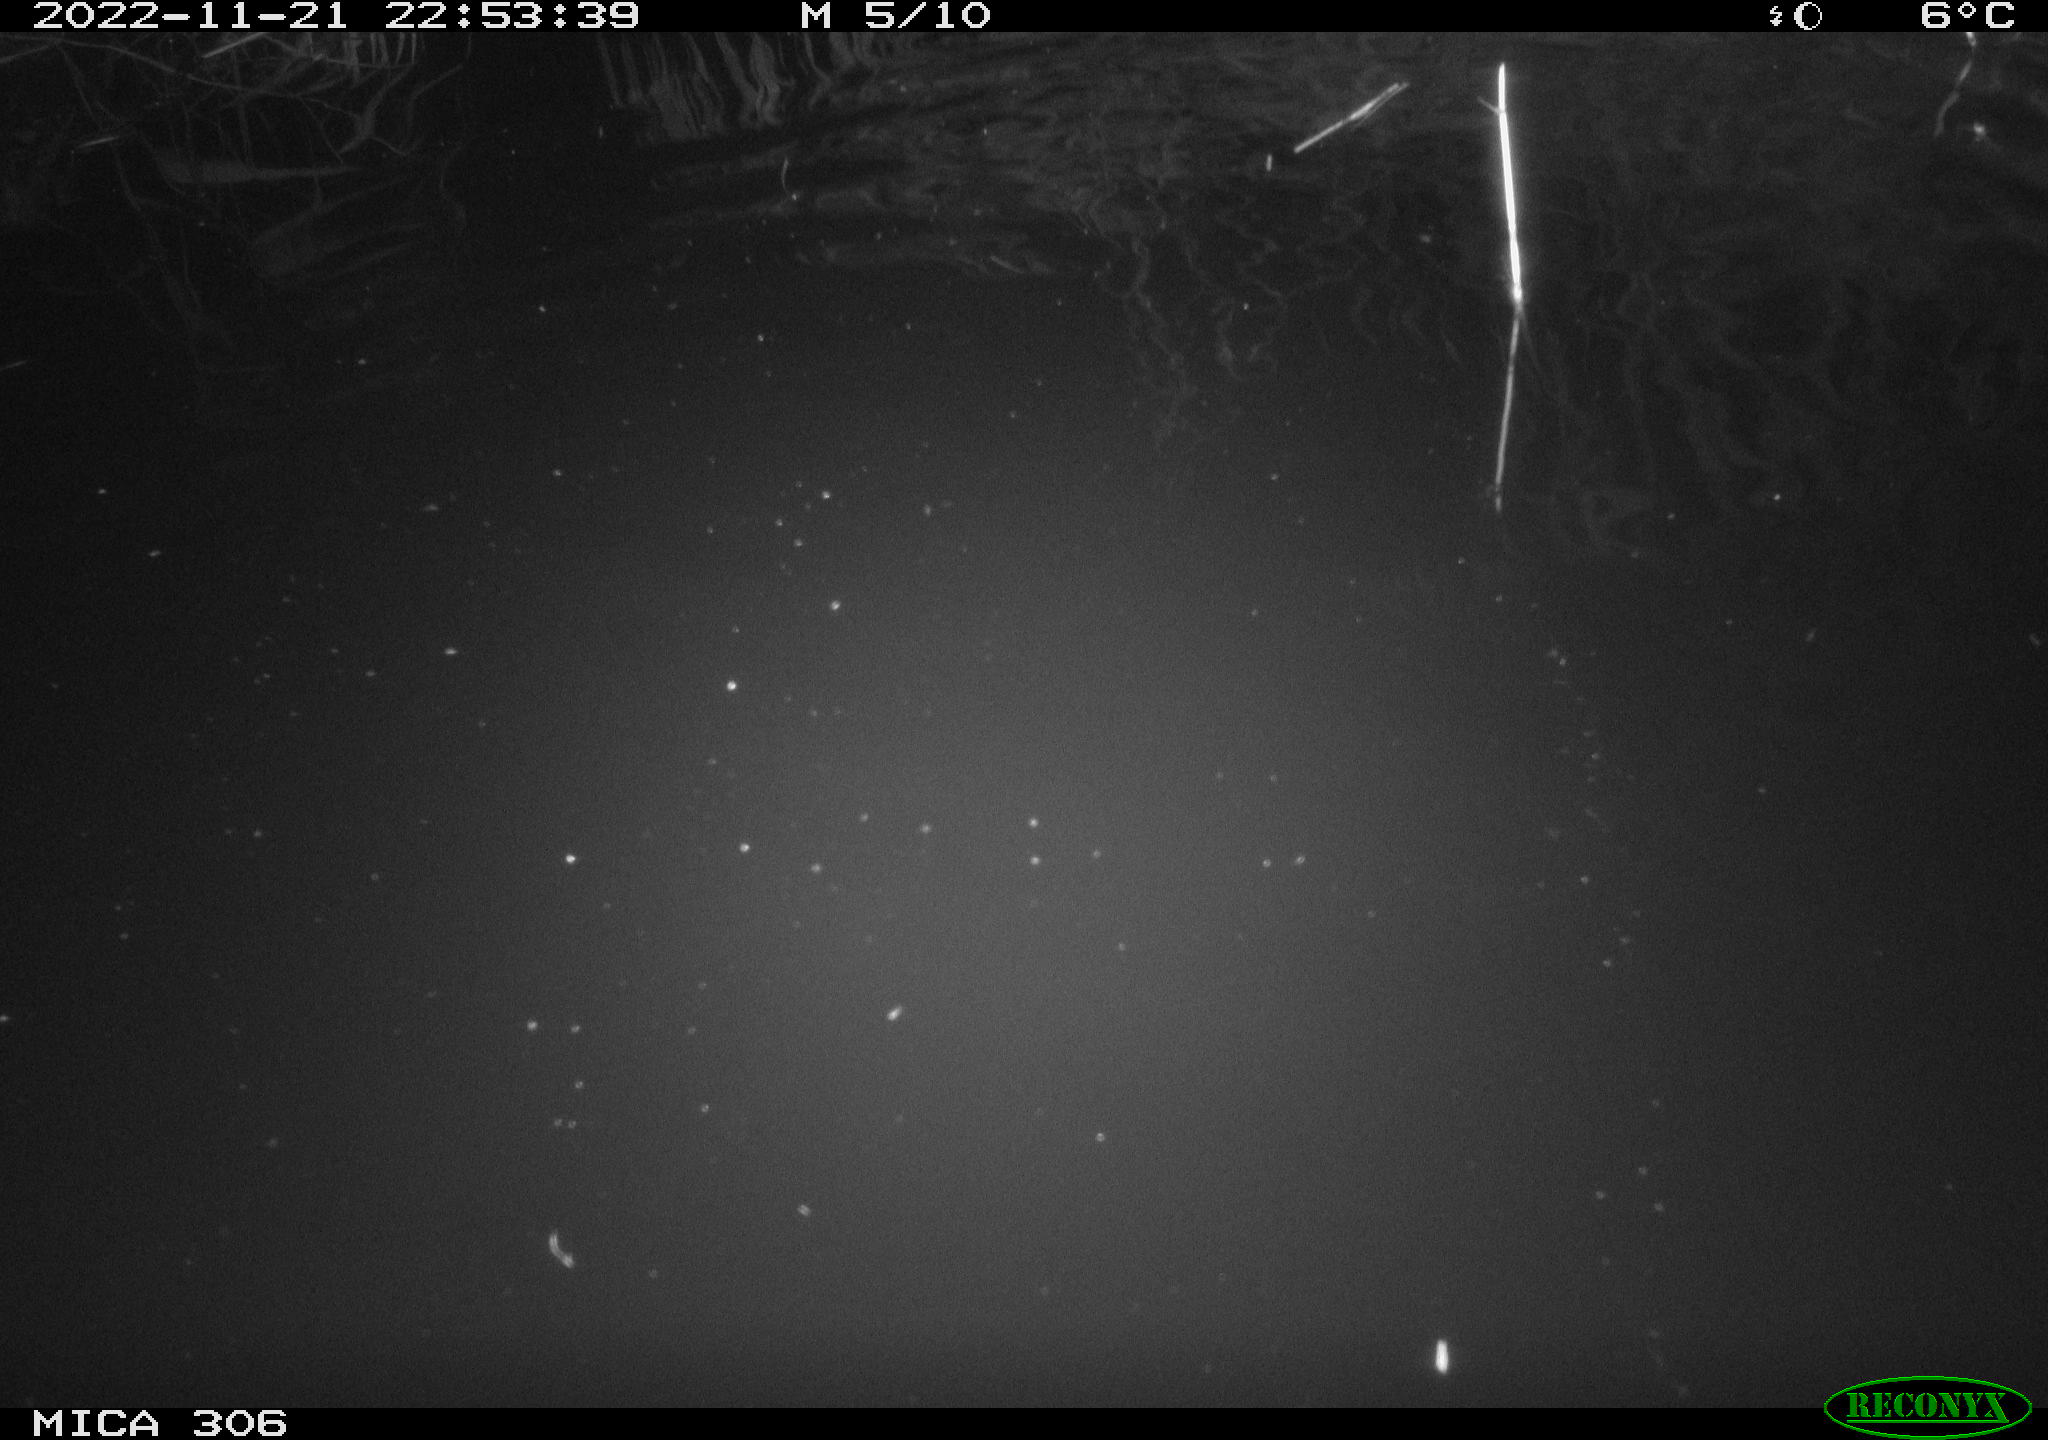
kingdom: Animalia
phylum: Chordata
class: Mammalia
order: Rodentia
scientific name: Rodentia
